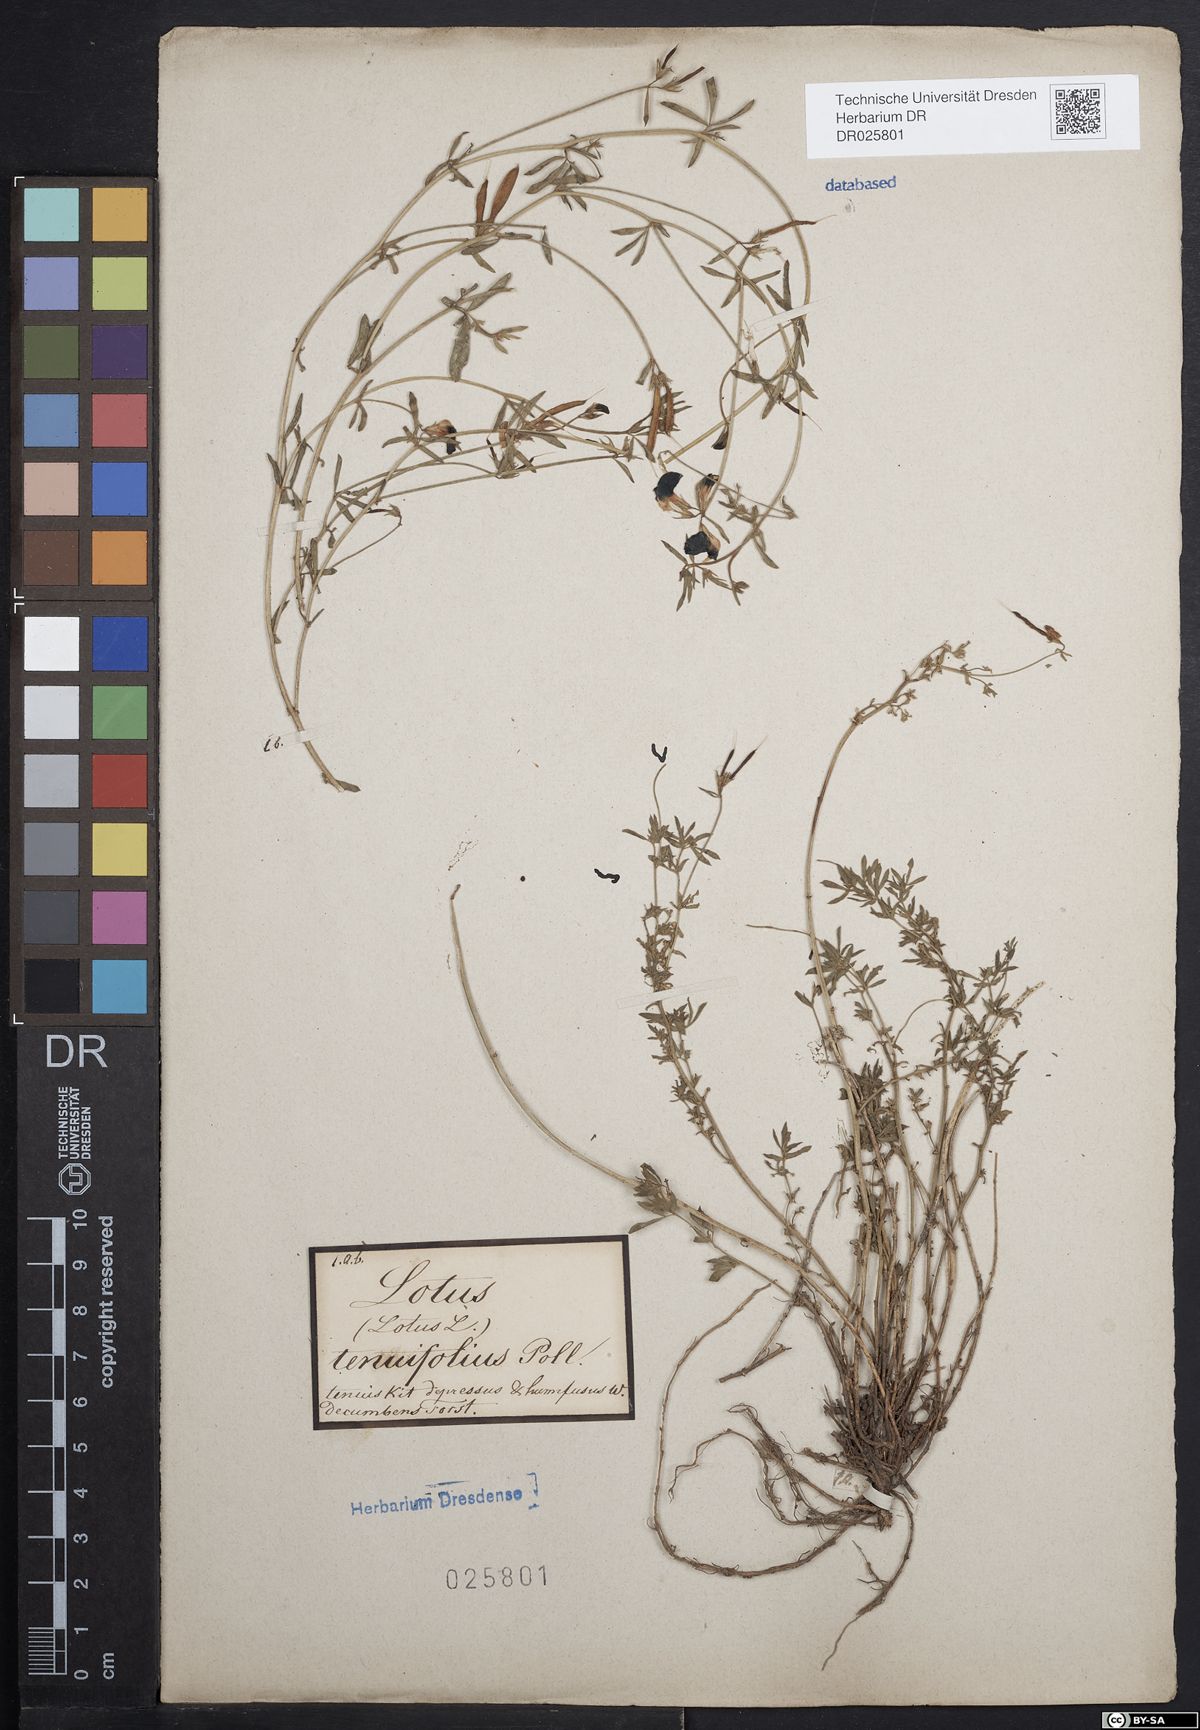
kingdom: Plantae
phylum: Tracheophyta
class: Magnoliopsida
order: Fabales
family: Fabaceae
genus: Lotus
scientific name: Lotus tenuis
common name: Narrow-leaved bird's-foot-trefoil
